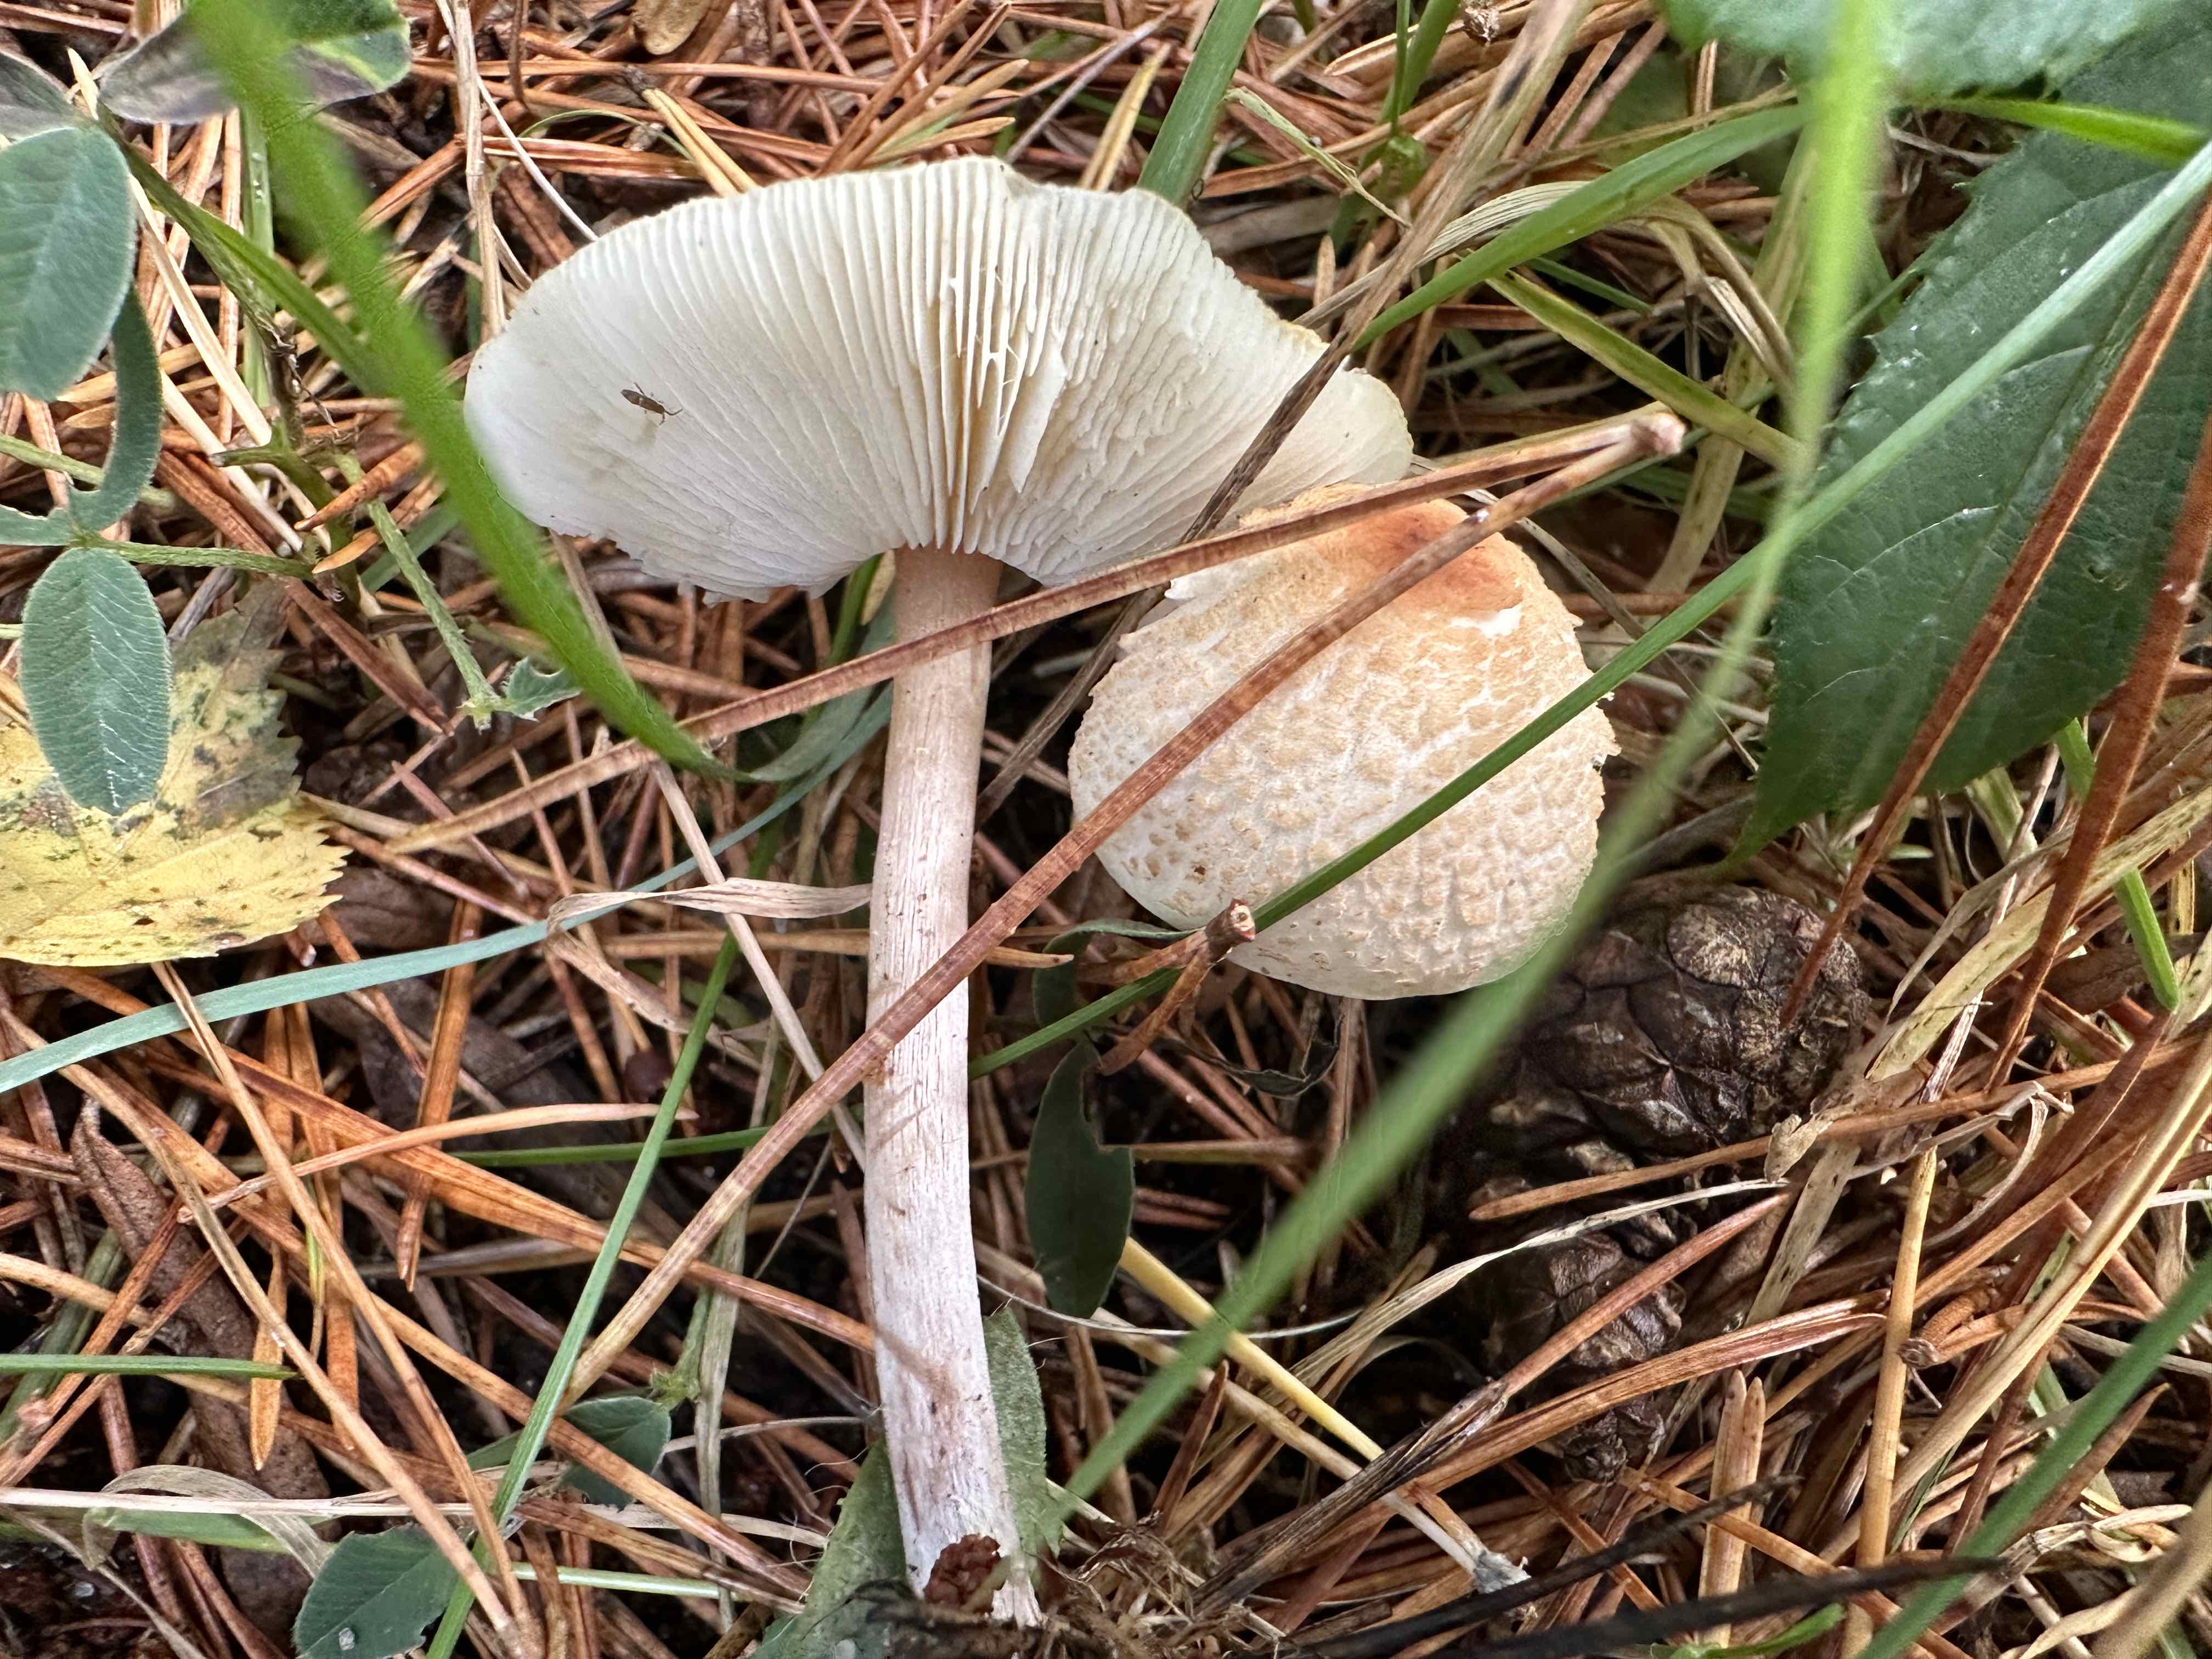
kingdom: Fungi
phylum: Basidiomycota
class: Agaricomycetes
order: Agaricales
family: Agaricaceae
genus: Lepiota
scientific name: Lepiota cristata
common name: stinkende parasolhat
